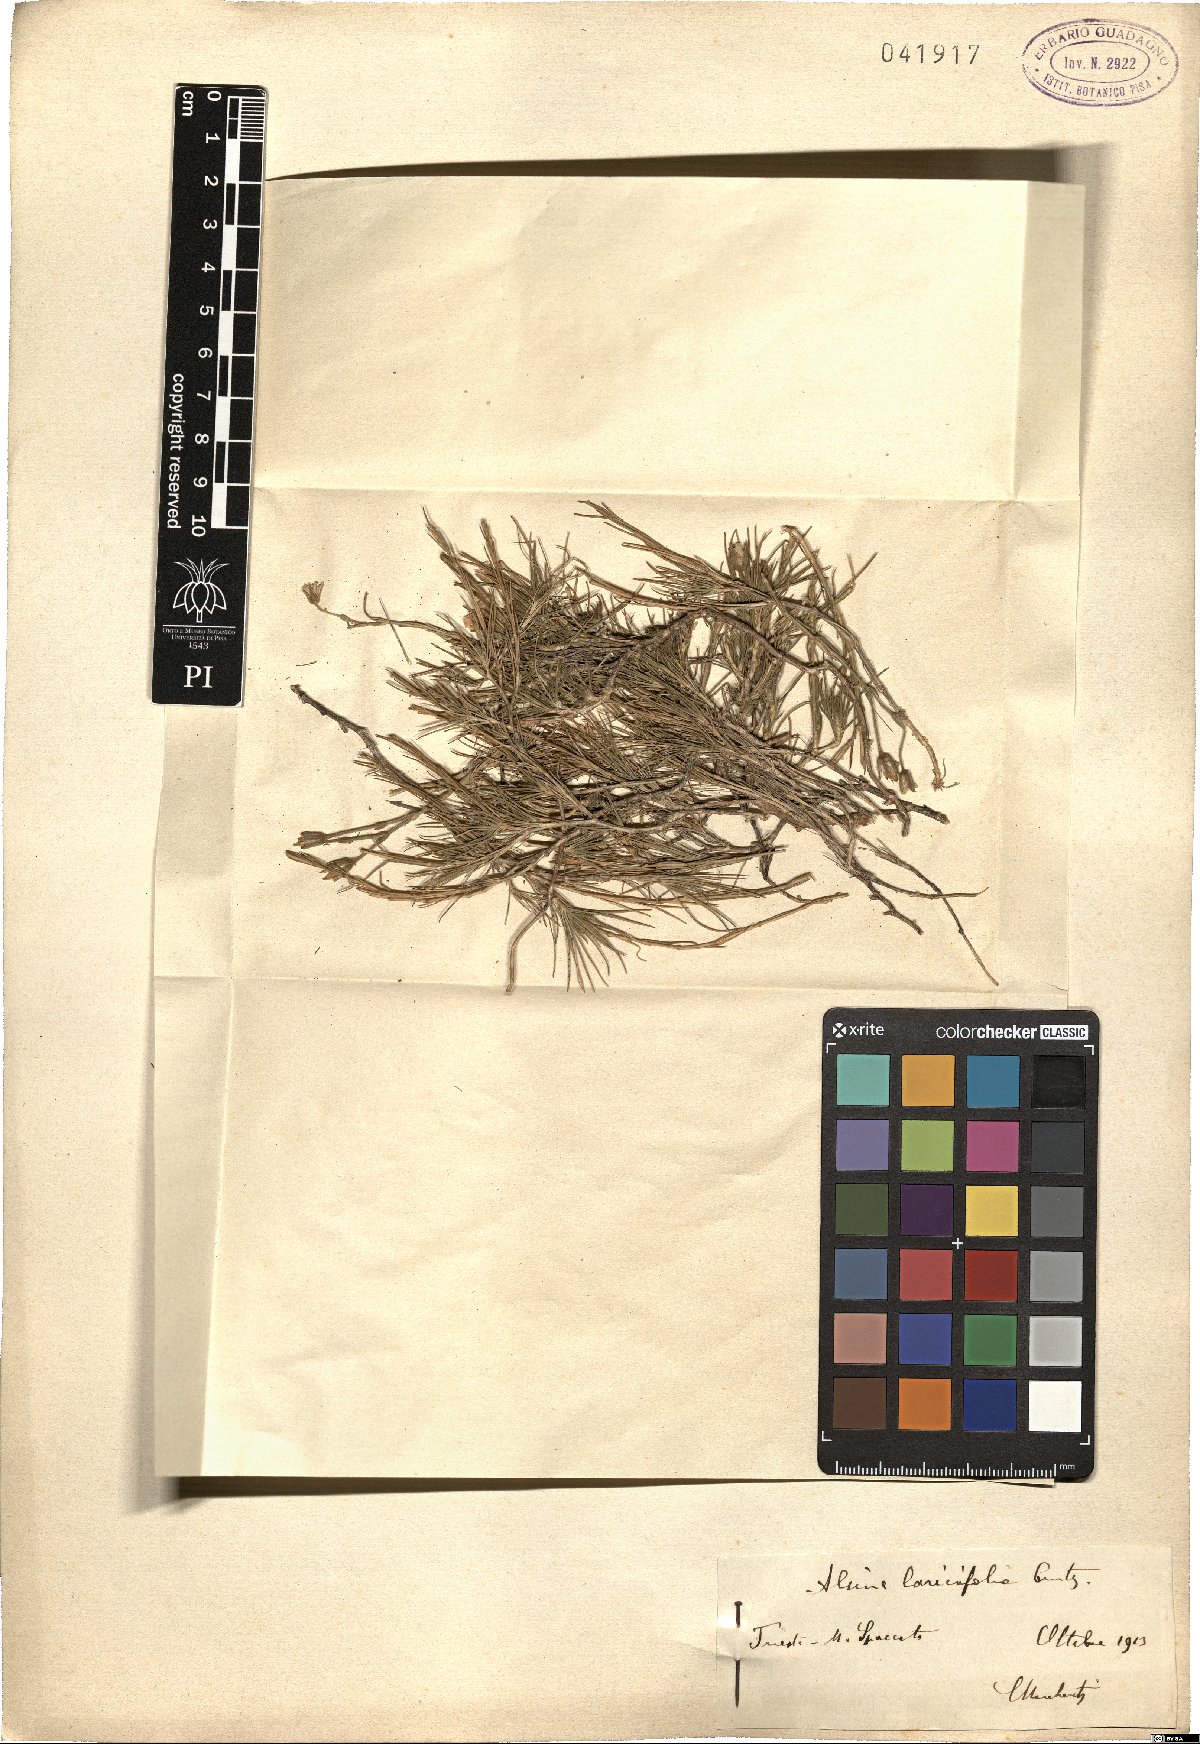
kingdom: Plantae
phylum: Tracheophyta
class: Magnoliopsida
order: Caryophyllales
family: Caryophyllaceae
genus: Cherleria
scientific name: Cherleria laricifolia
